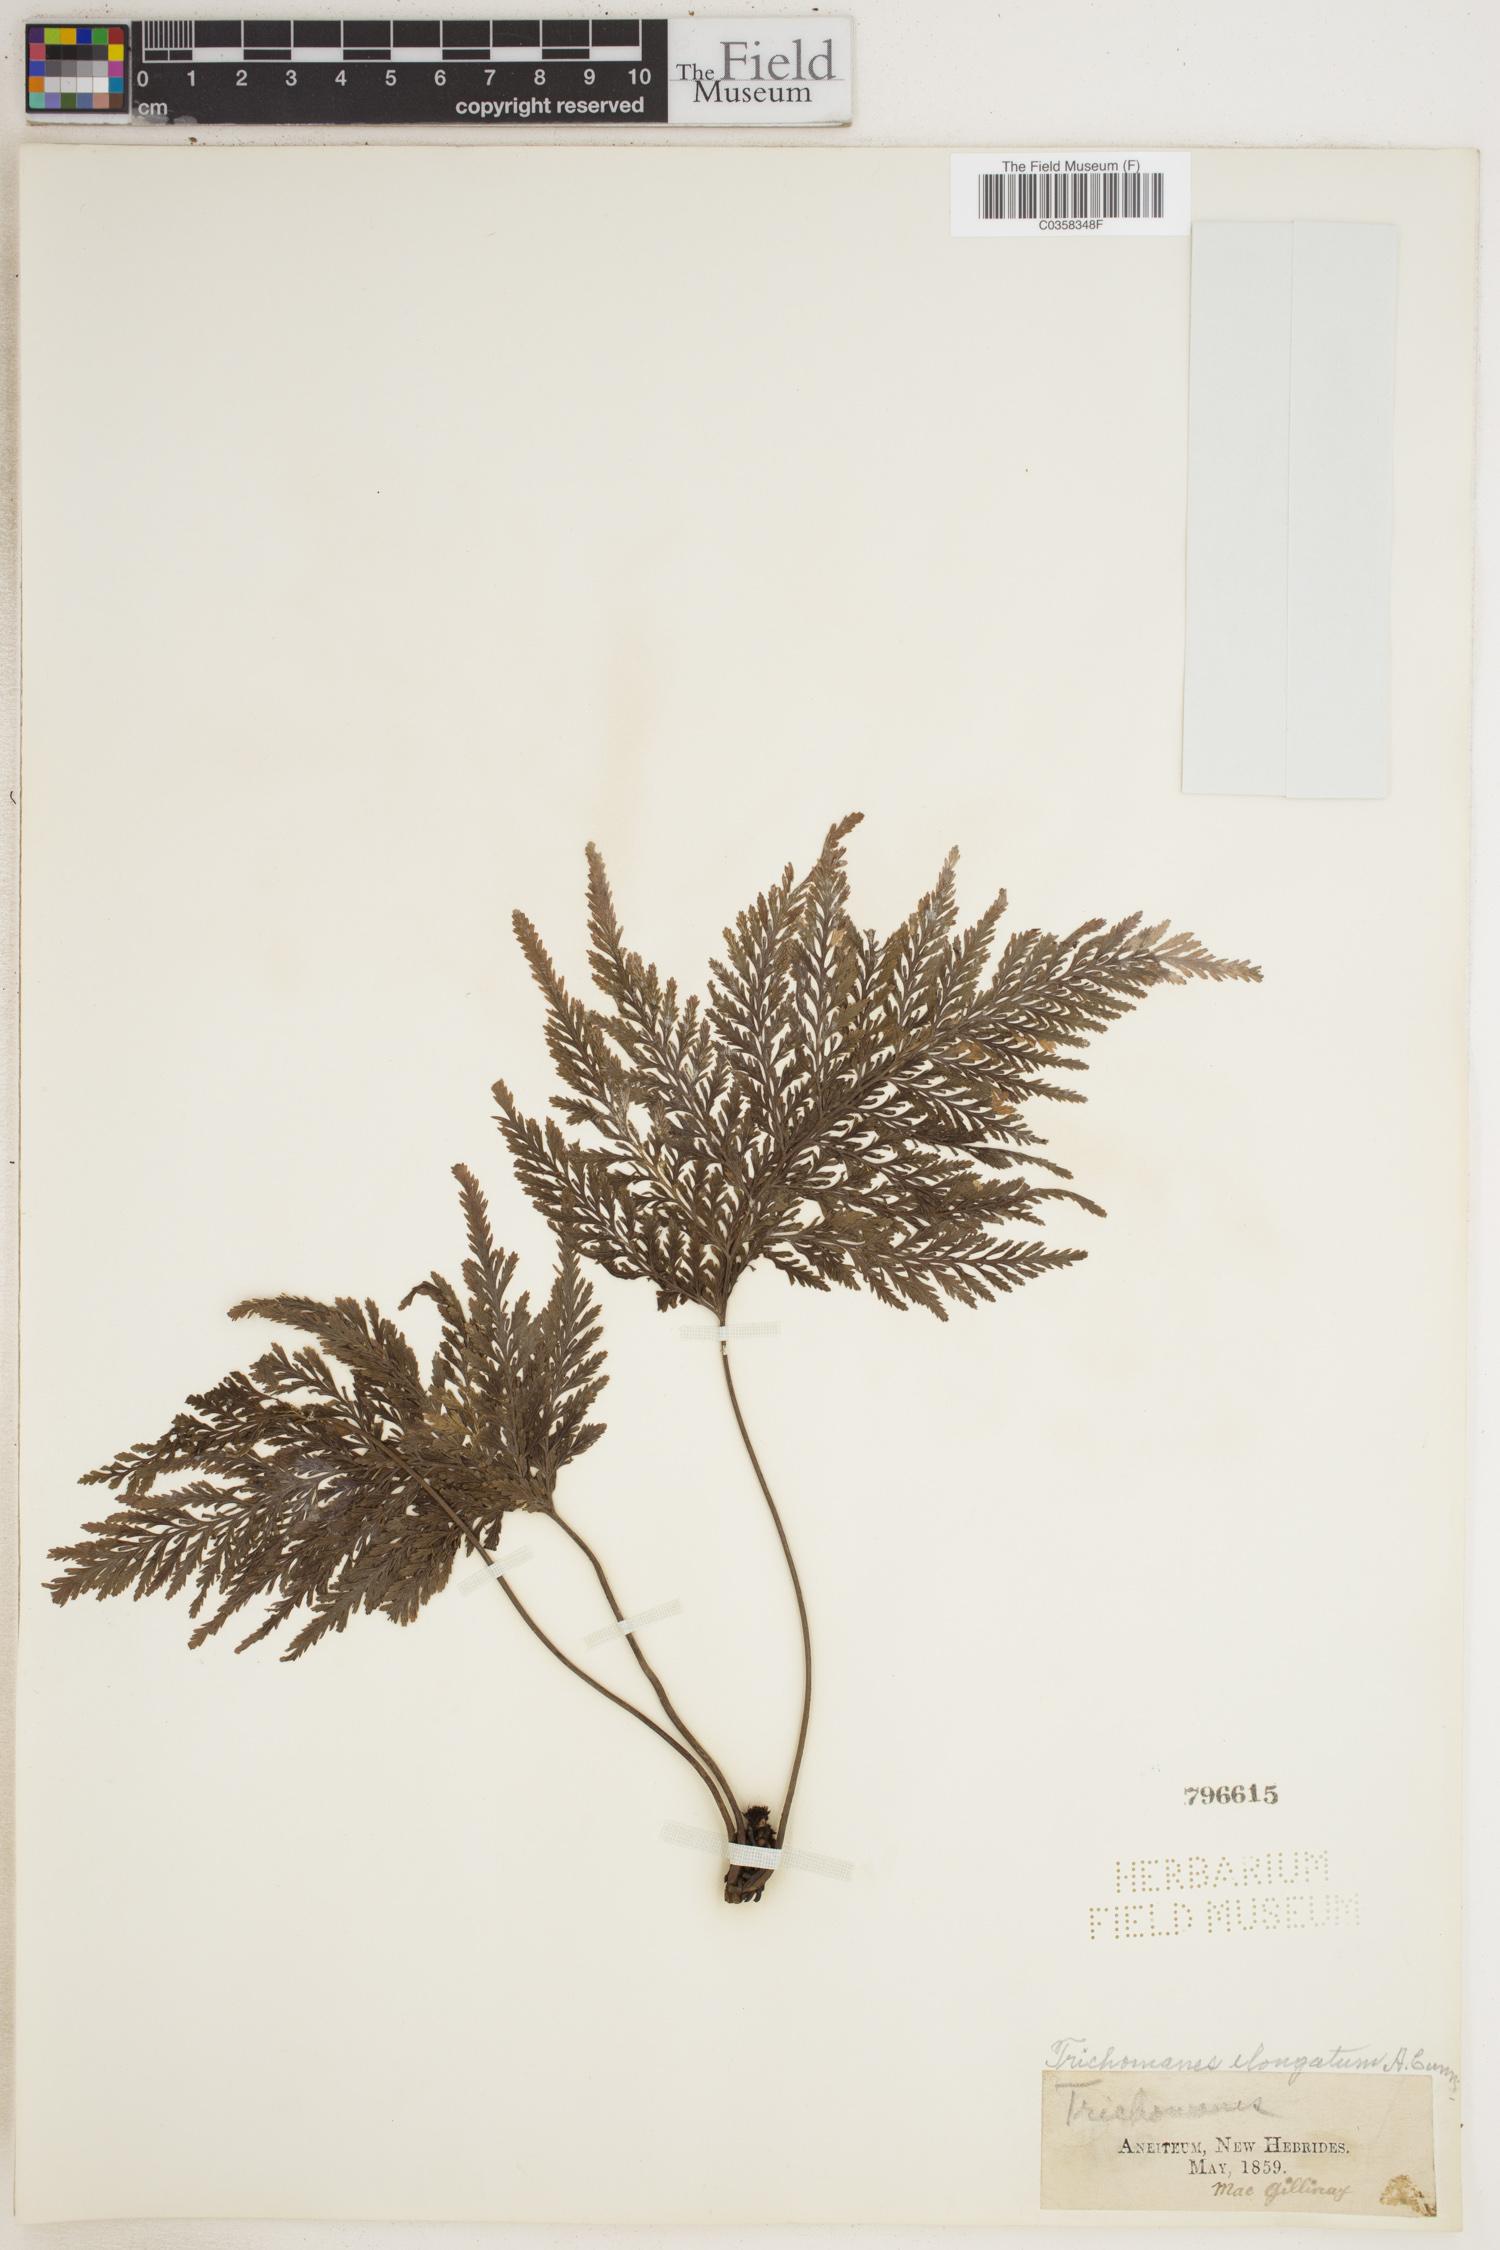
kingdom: Plantae
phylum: Tracheophyta
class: Polypodiopsida
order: Hymenophyllales
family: Hymenophyllaceae
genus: Abrodictyum
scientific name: Abrodictyum elongatum
